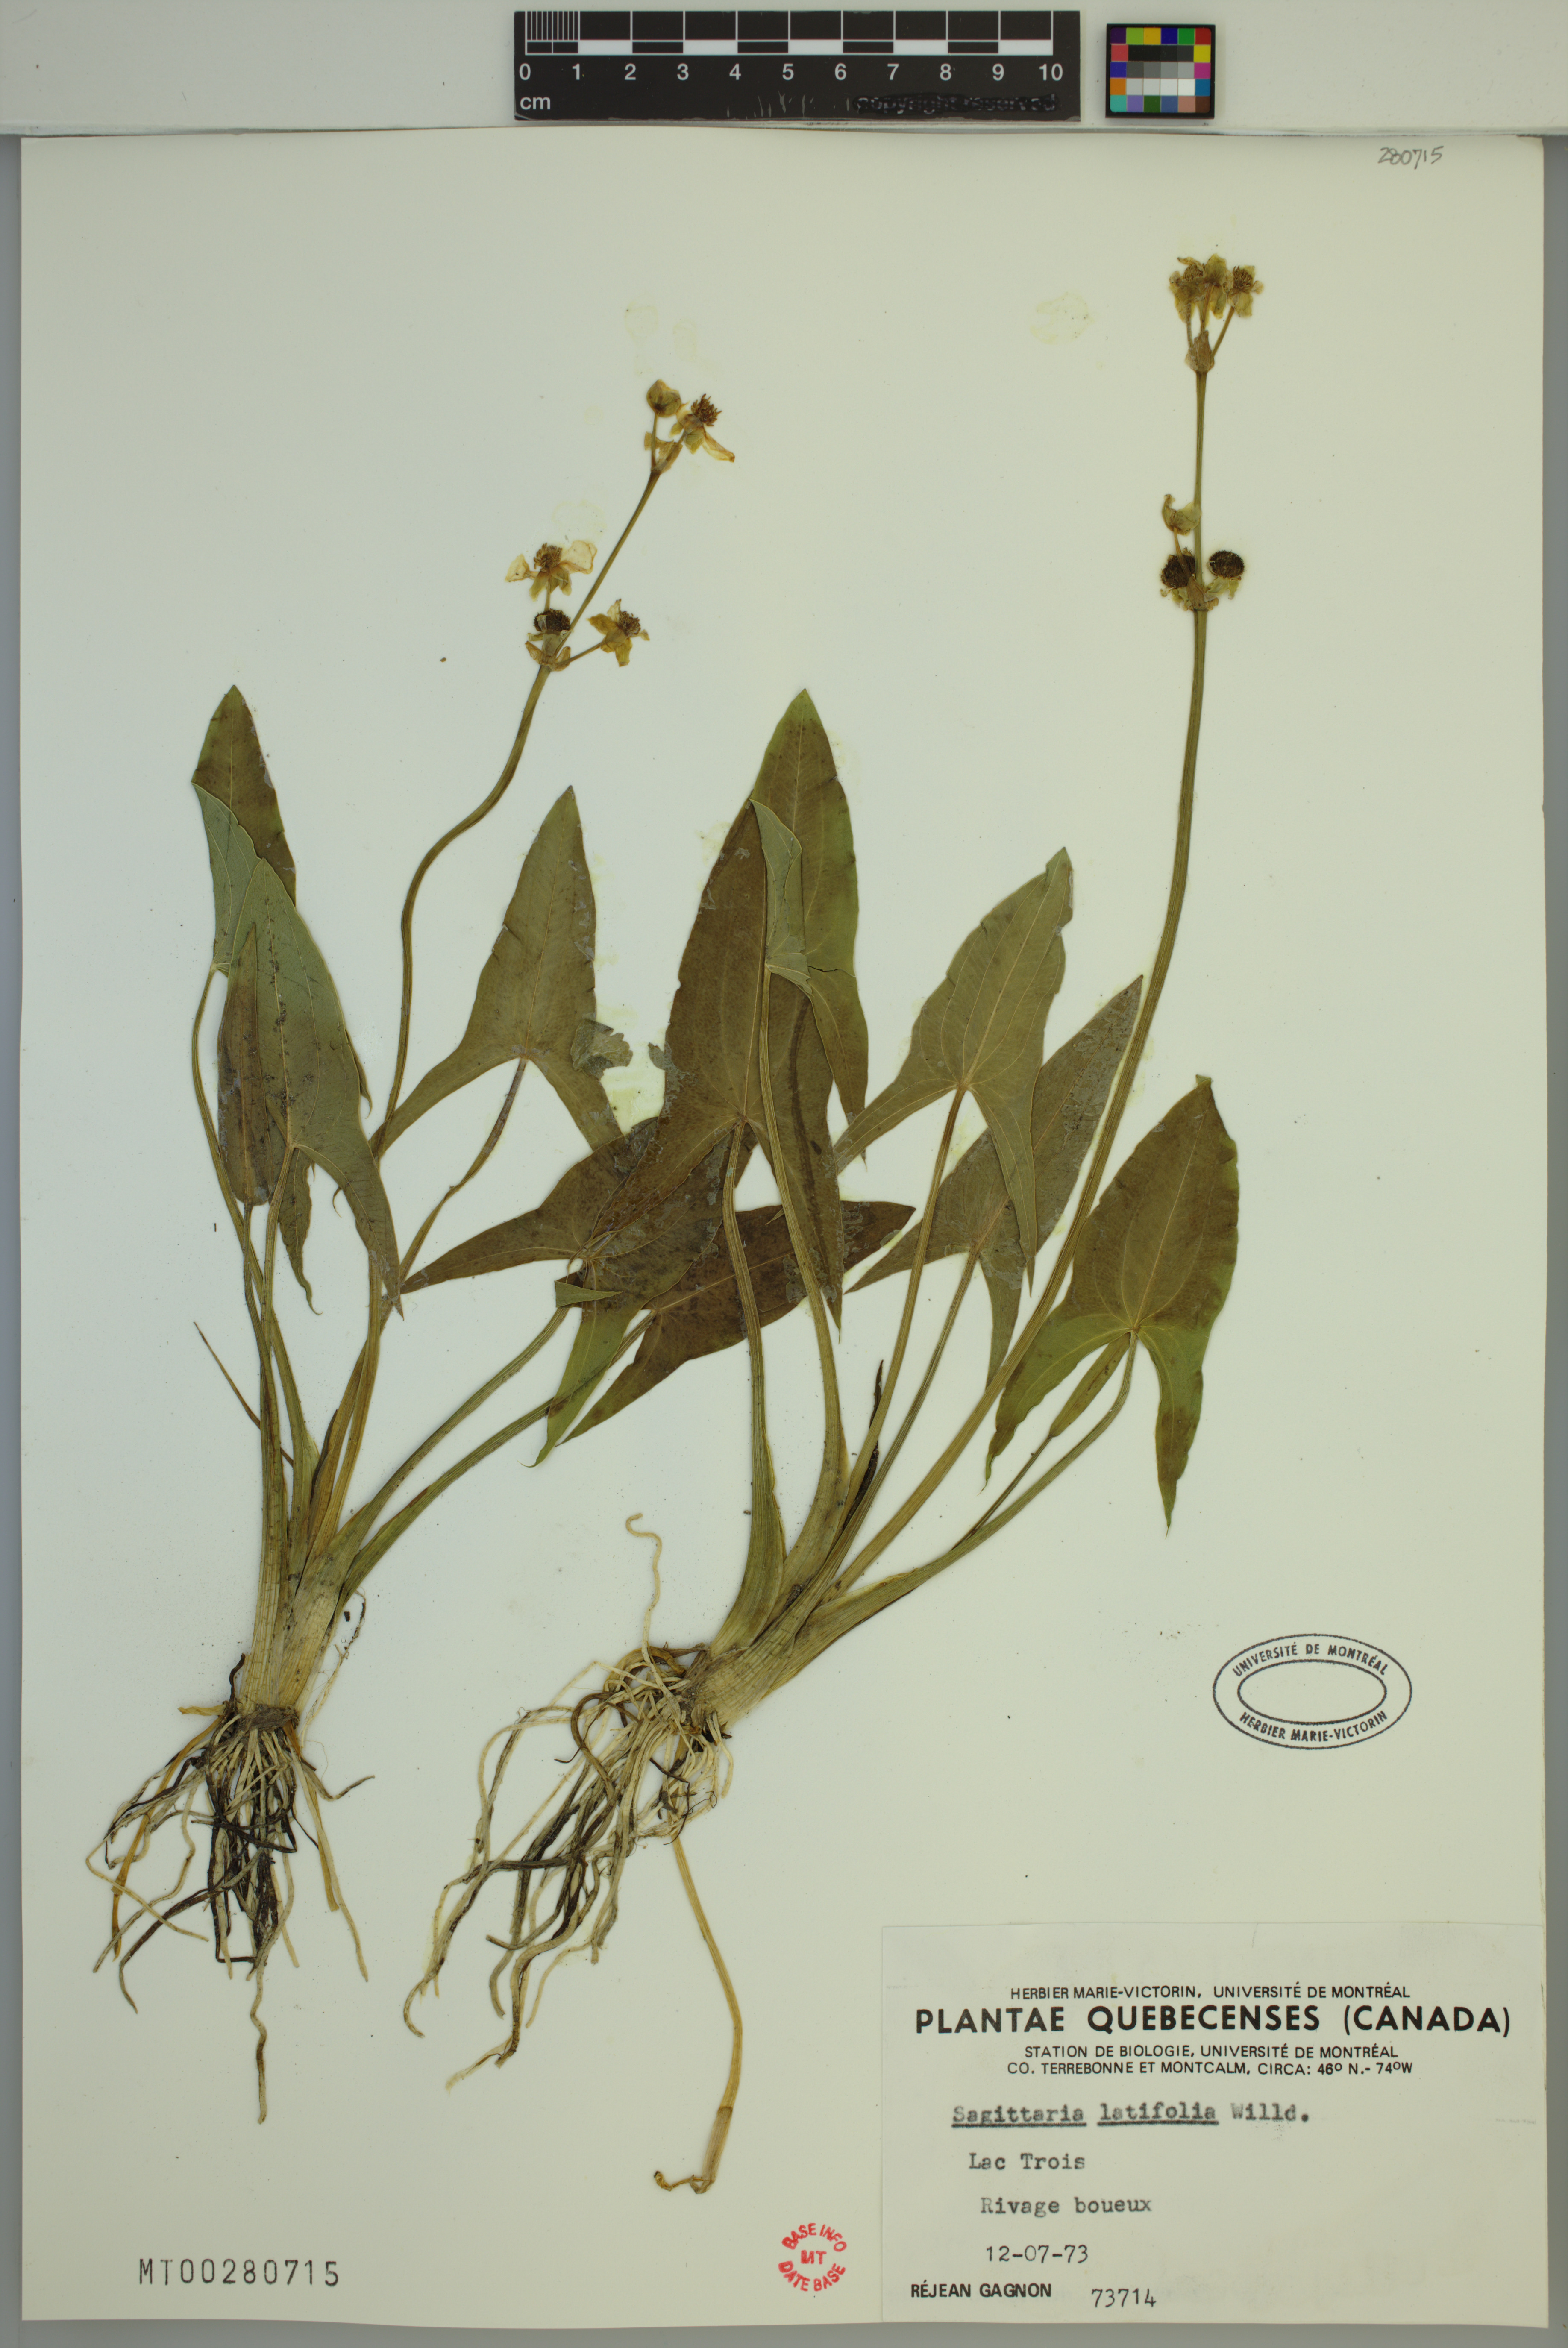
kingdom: Plantae
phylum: Tracheophyta
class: Liliopsida
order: Alismatales
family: Alismataceae
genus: Sagittaria
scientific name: Sagittaria latifolia
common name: Duck-potato
